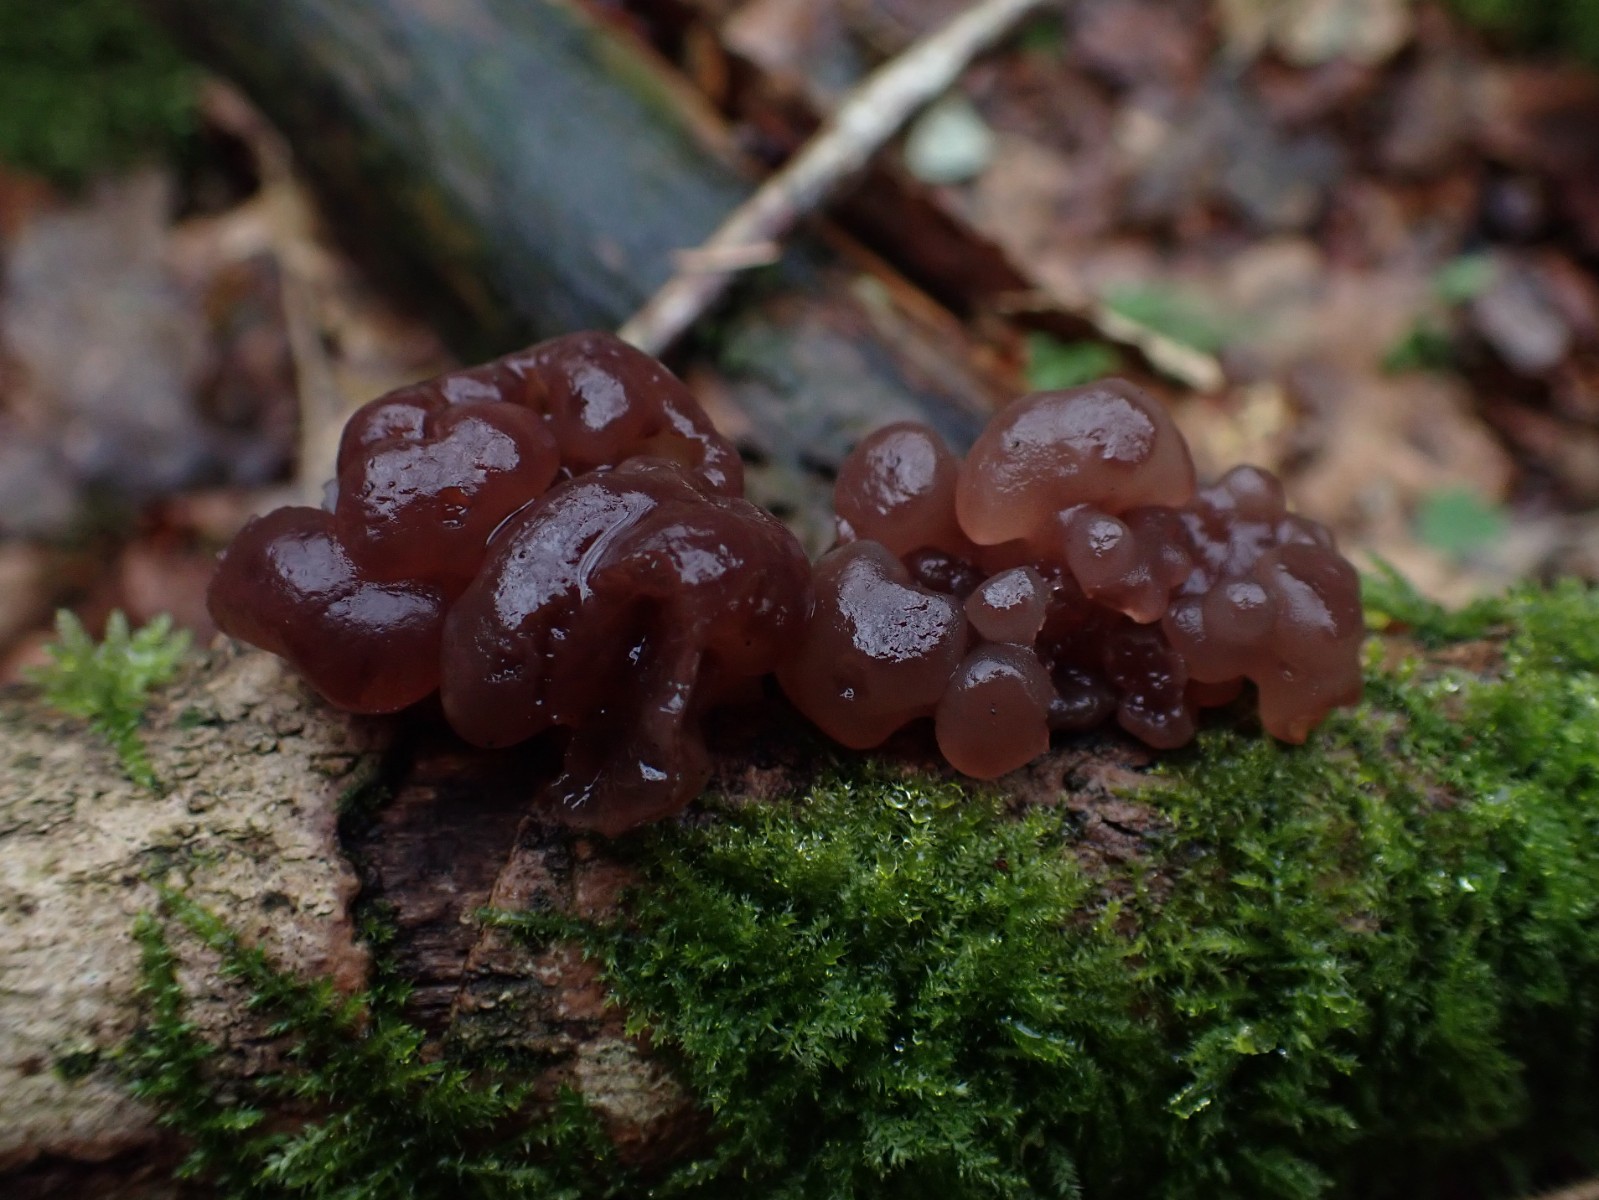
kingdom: Fungi
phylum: Ascomycota
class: Leotiomycetes
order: Helotiales
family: Gelatinodiscaceae
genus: Ascotremella
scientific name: Ascotremella faginea
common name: hjerne-bævreskive
